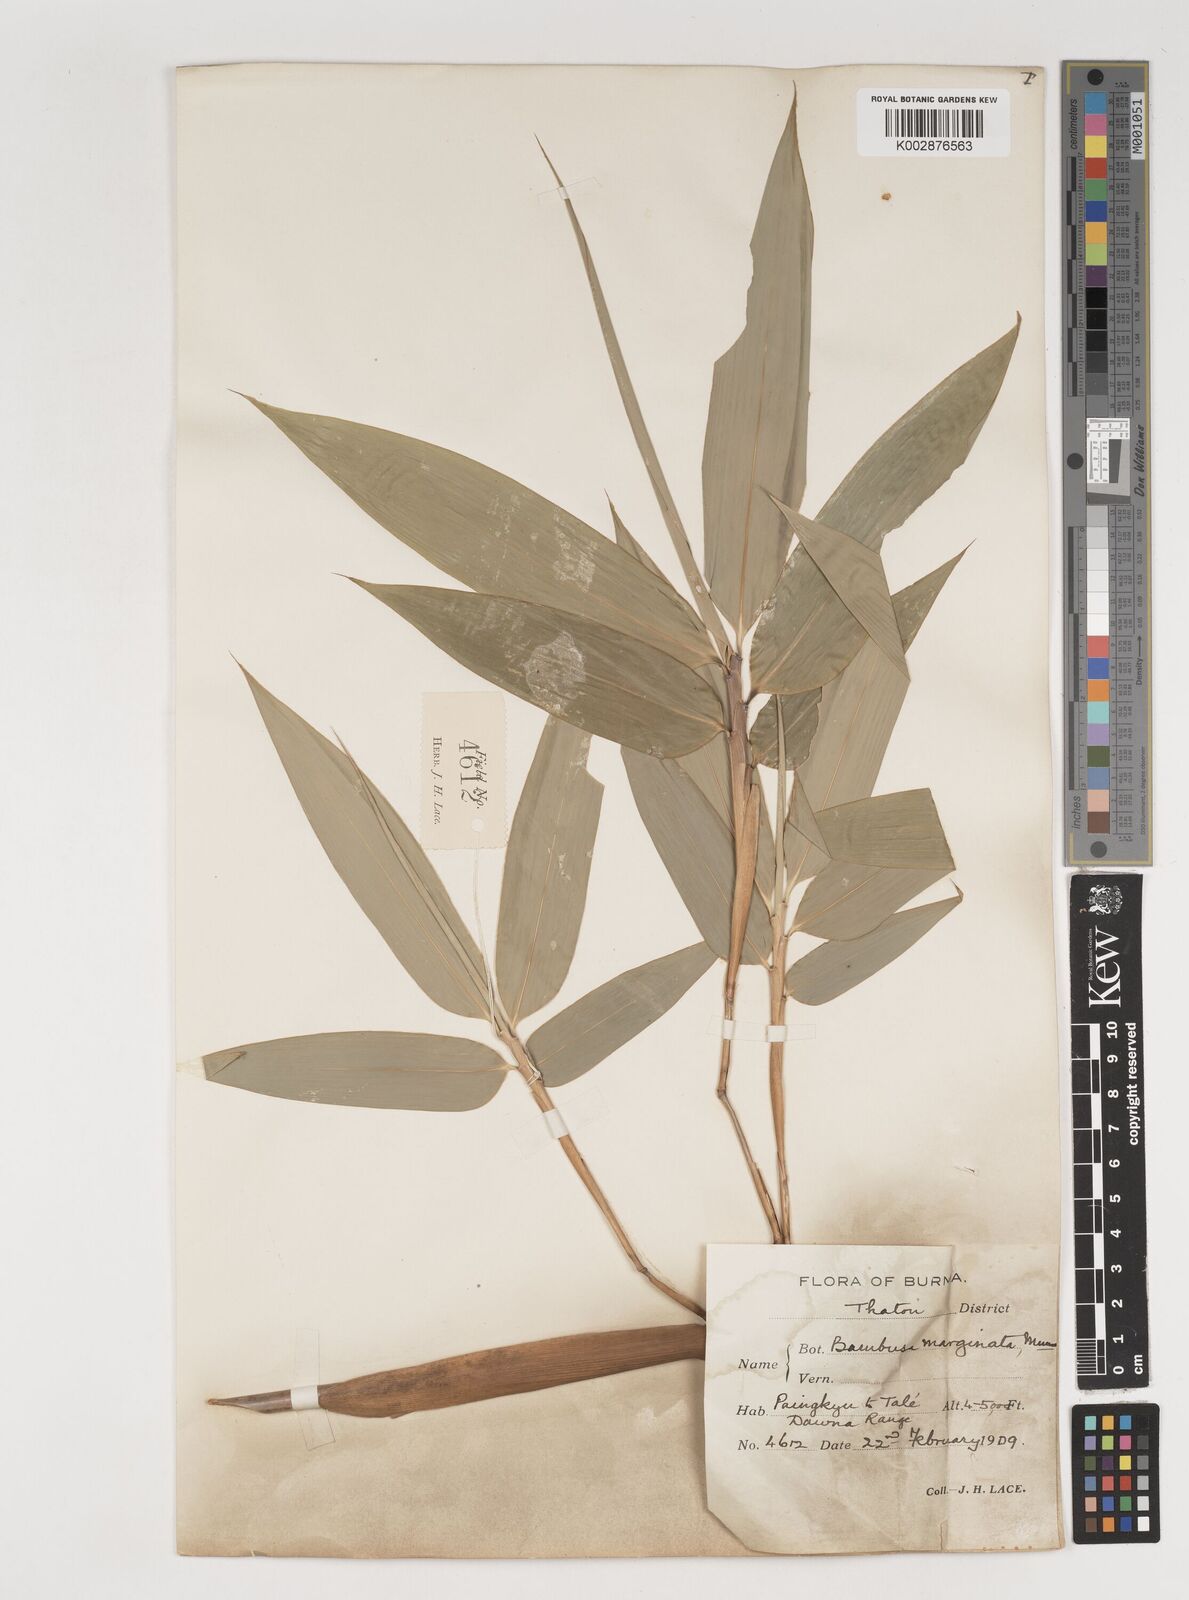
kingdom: Plantae
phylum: Tracheophyta
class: Liliopsida
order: Poales
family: Poaceae
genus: Bambusa
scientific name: Bambusa marginata
